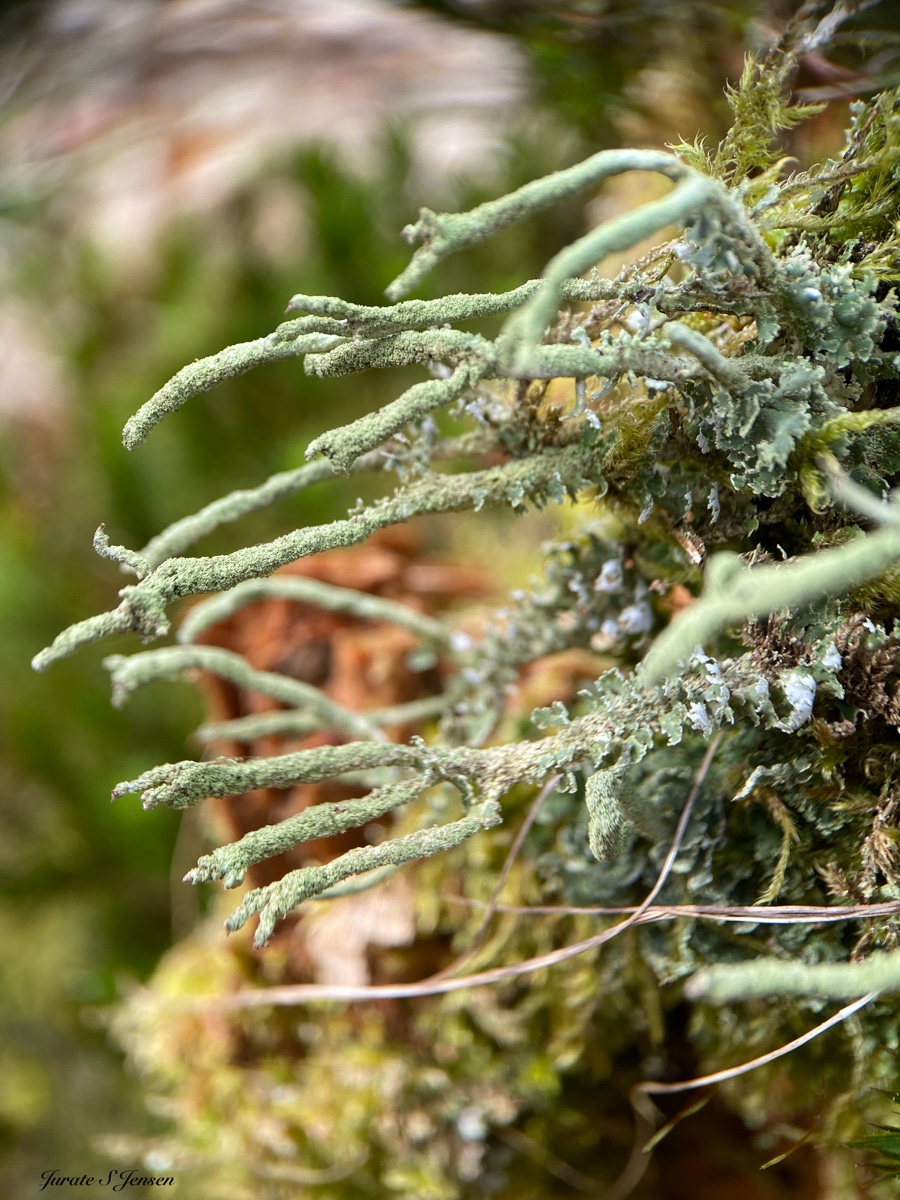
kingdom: Fungi
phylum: Ascomycota
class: Lecanoromycetes
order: Lecanorales
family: Cladoniaceae
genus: Cladonia
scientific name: Cladonia
